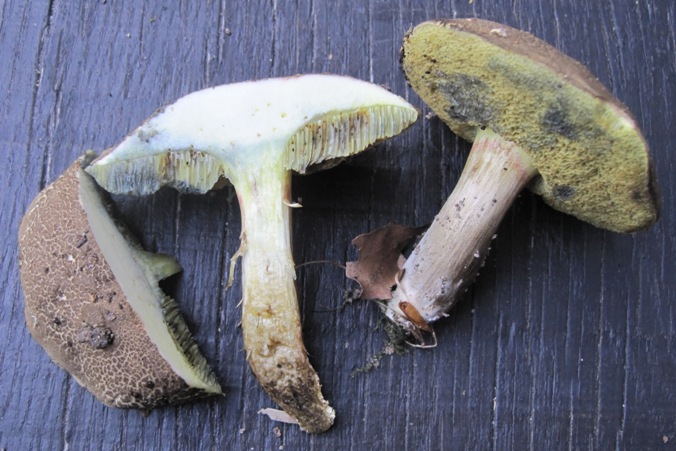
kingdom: Fungi
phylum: Basidiomycota
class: Agaricomycetes
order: Boletales
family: Boletaceae
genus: Xerocomellus
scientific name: Xerocomellus porosporus
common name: hvidsprukken rørhat
